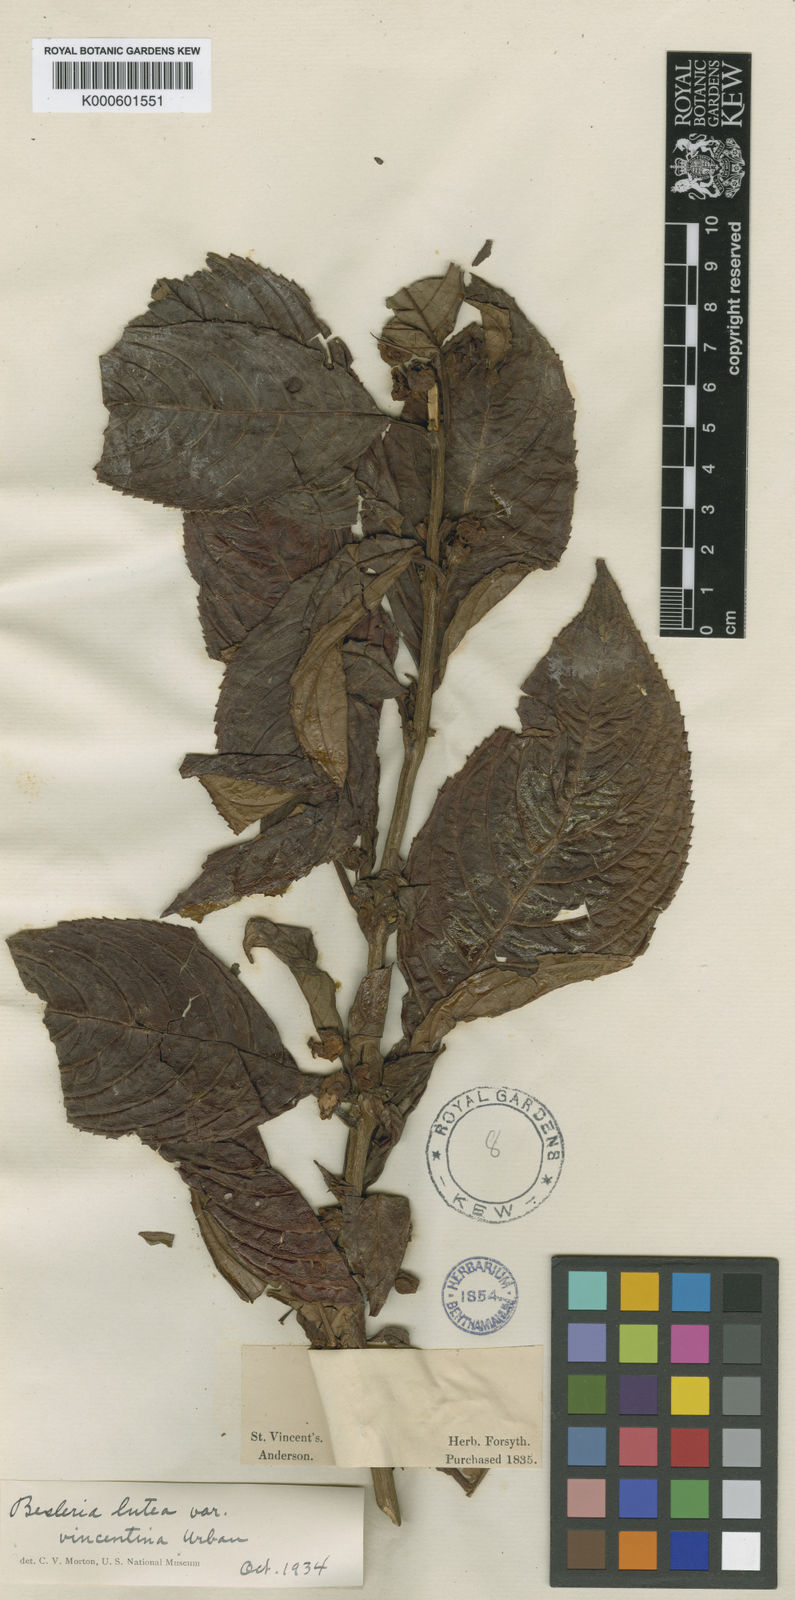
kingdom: Plantae
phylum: Tracheophyta
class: Magnoliopsida
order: Lamiales
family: Gesneriaceae
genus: Besleria
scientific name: Besleria lutea
